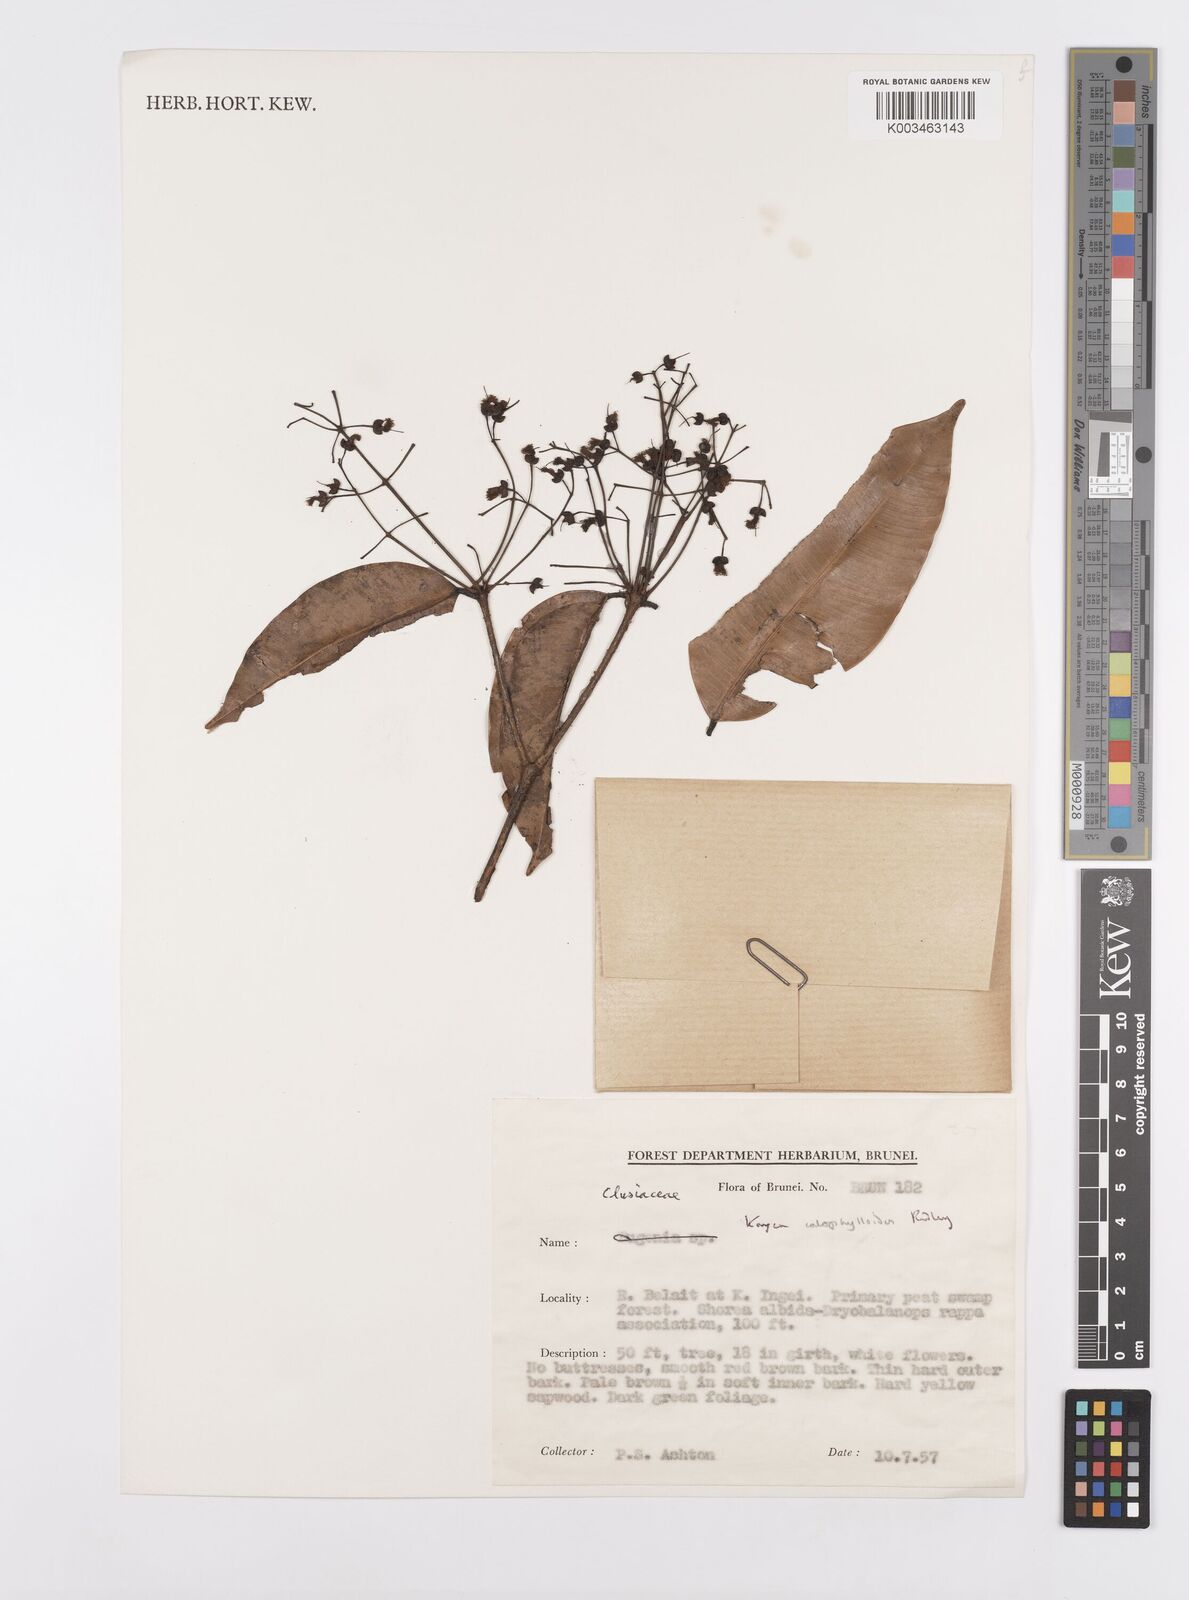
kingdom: Plantae
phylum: Tracheophyta
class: Magnoliopsida
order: Malpighiales
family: Calophyllaceae
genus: Kayea
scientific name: Kayea calophylloides
